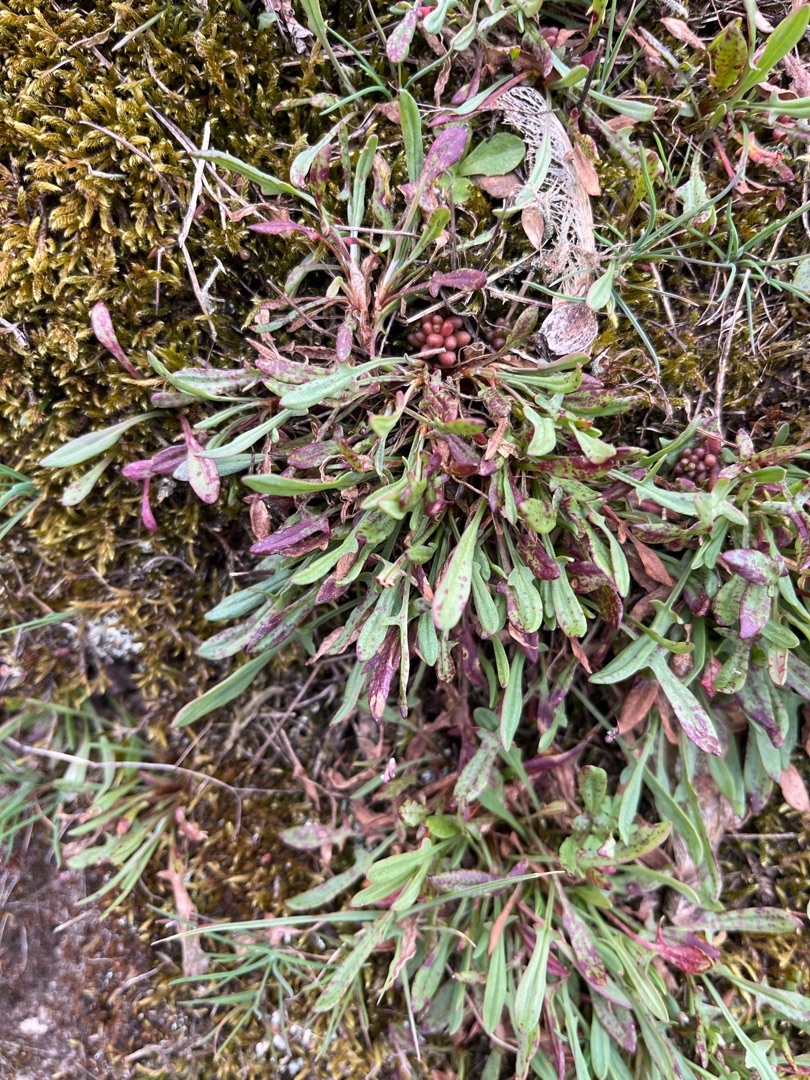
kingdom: Plantae
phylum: Tracheophyta
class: Magnoliopsida
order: Caryophyllales
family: Polygonaceae
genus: Rumex
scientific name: Rumex acetosella
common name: Rødknæ
